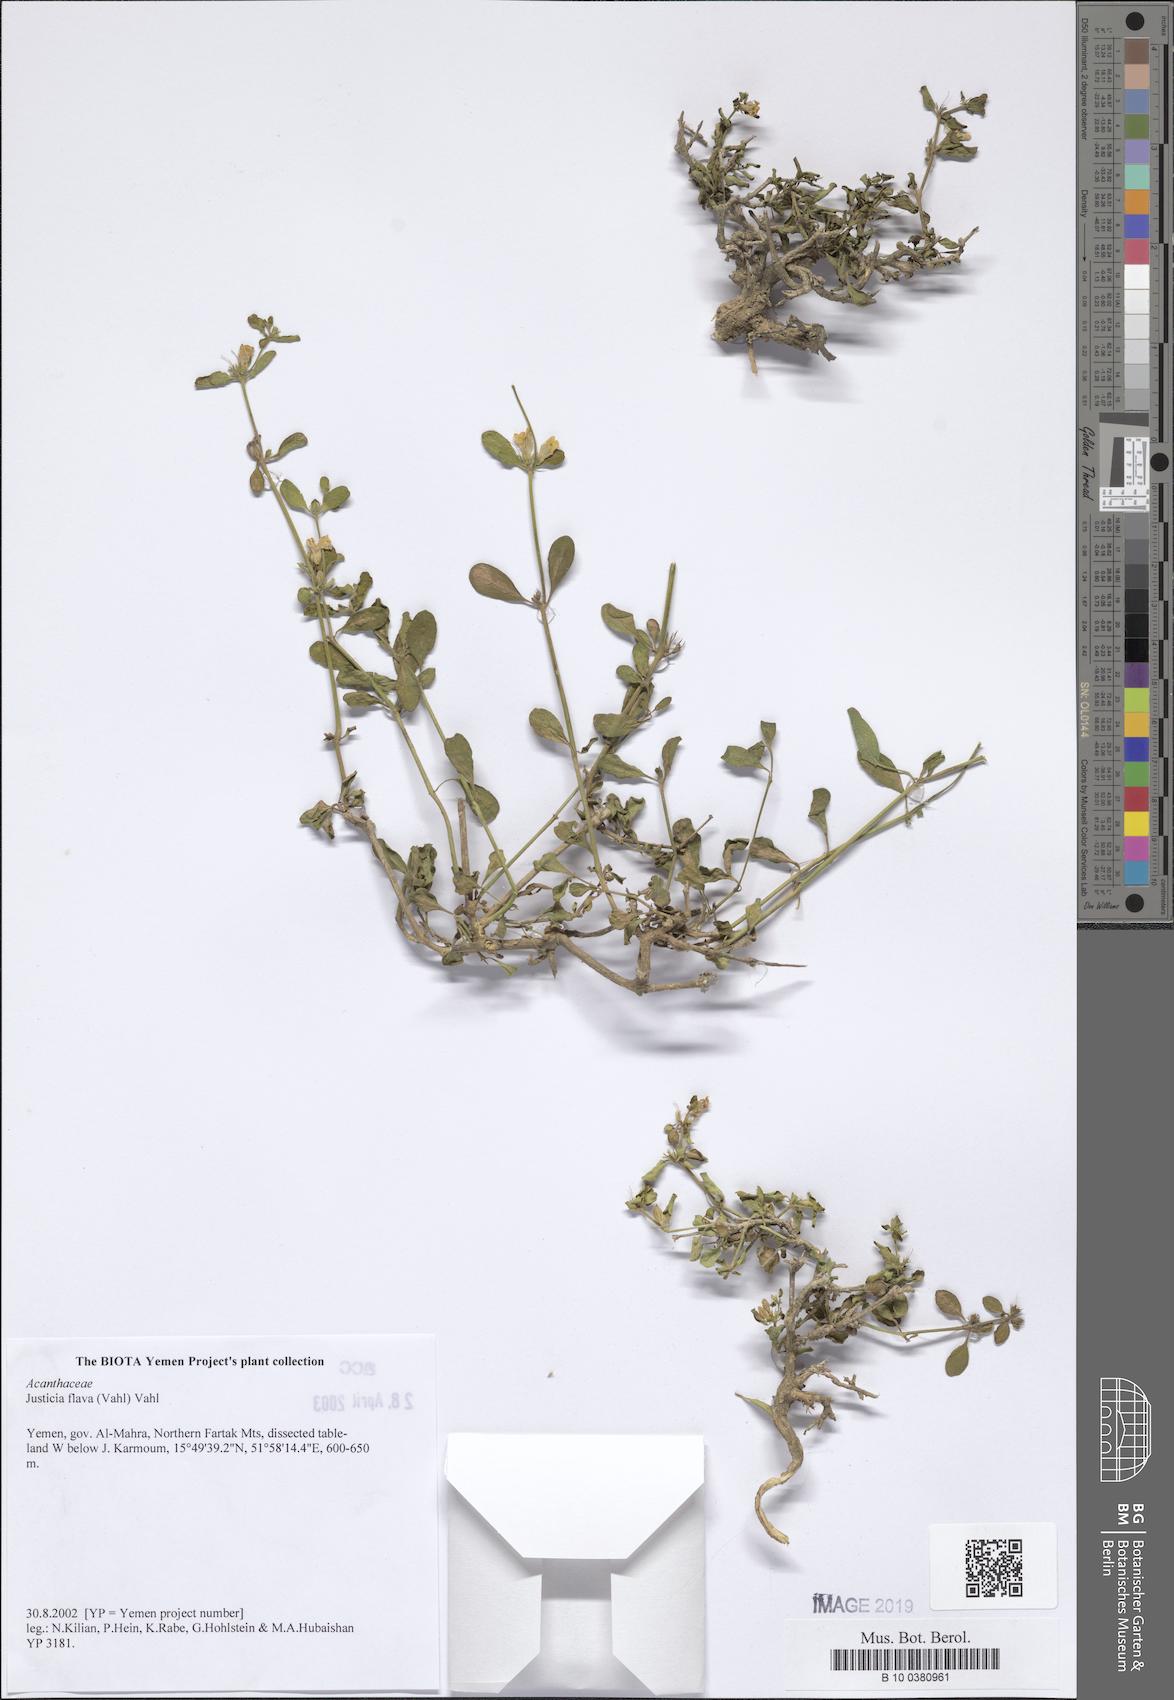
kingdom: Plantae
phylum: Tracheophyta
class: Magnoliopsida
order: Lamiales
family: Acanthaceae
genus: Justicia
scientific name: Justicia flava
